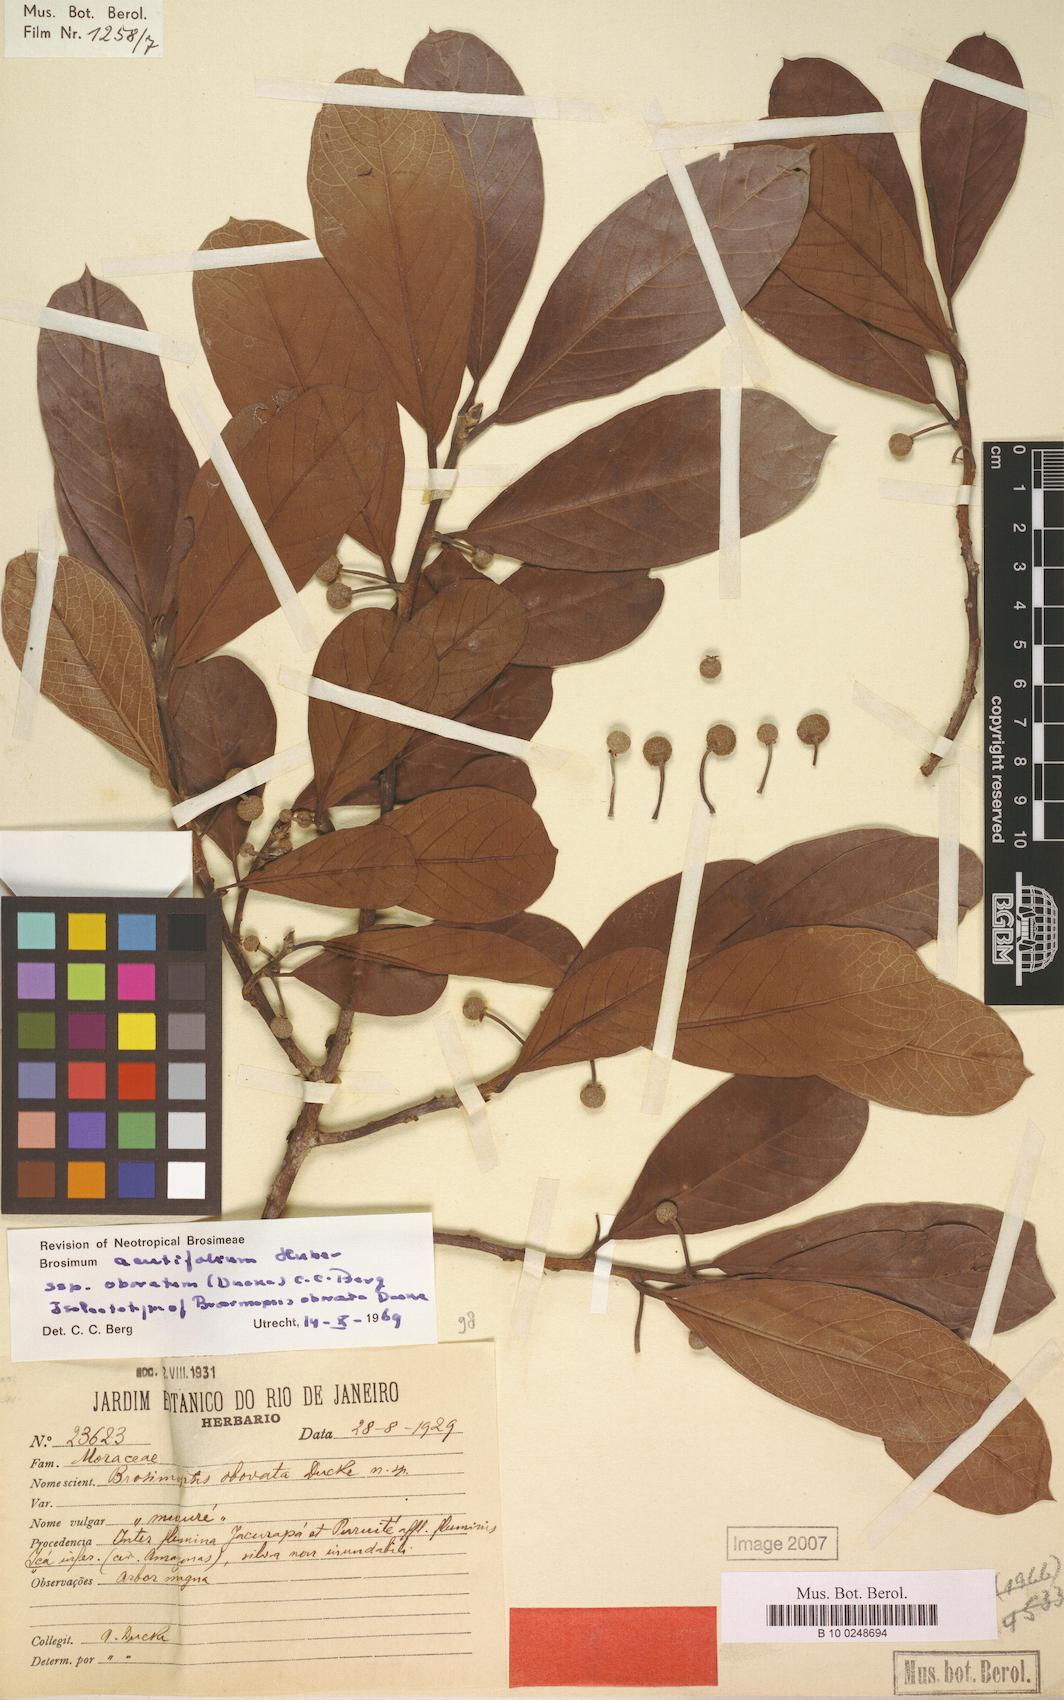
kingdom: Plantae
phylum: Tracheophyta
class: Magnoliopsida
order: Rosales
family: Moraceae
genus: Brosimum
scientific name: Brosimum acutifolium
